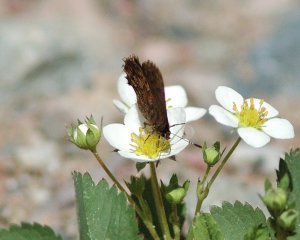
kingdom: Animalia
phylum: Arthropoda
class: Insecta
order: Lepidoptera
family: Lycaenidae
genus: Incisalia
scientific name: Incisalia niphon
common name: Eastern Pine Elfin
